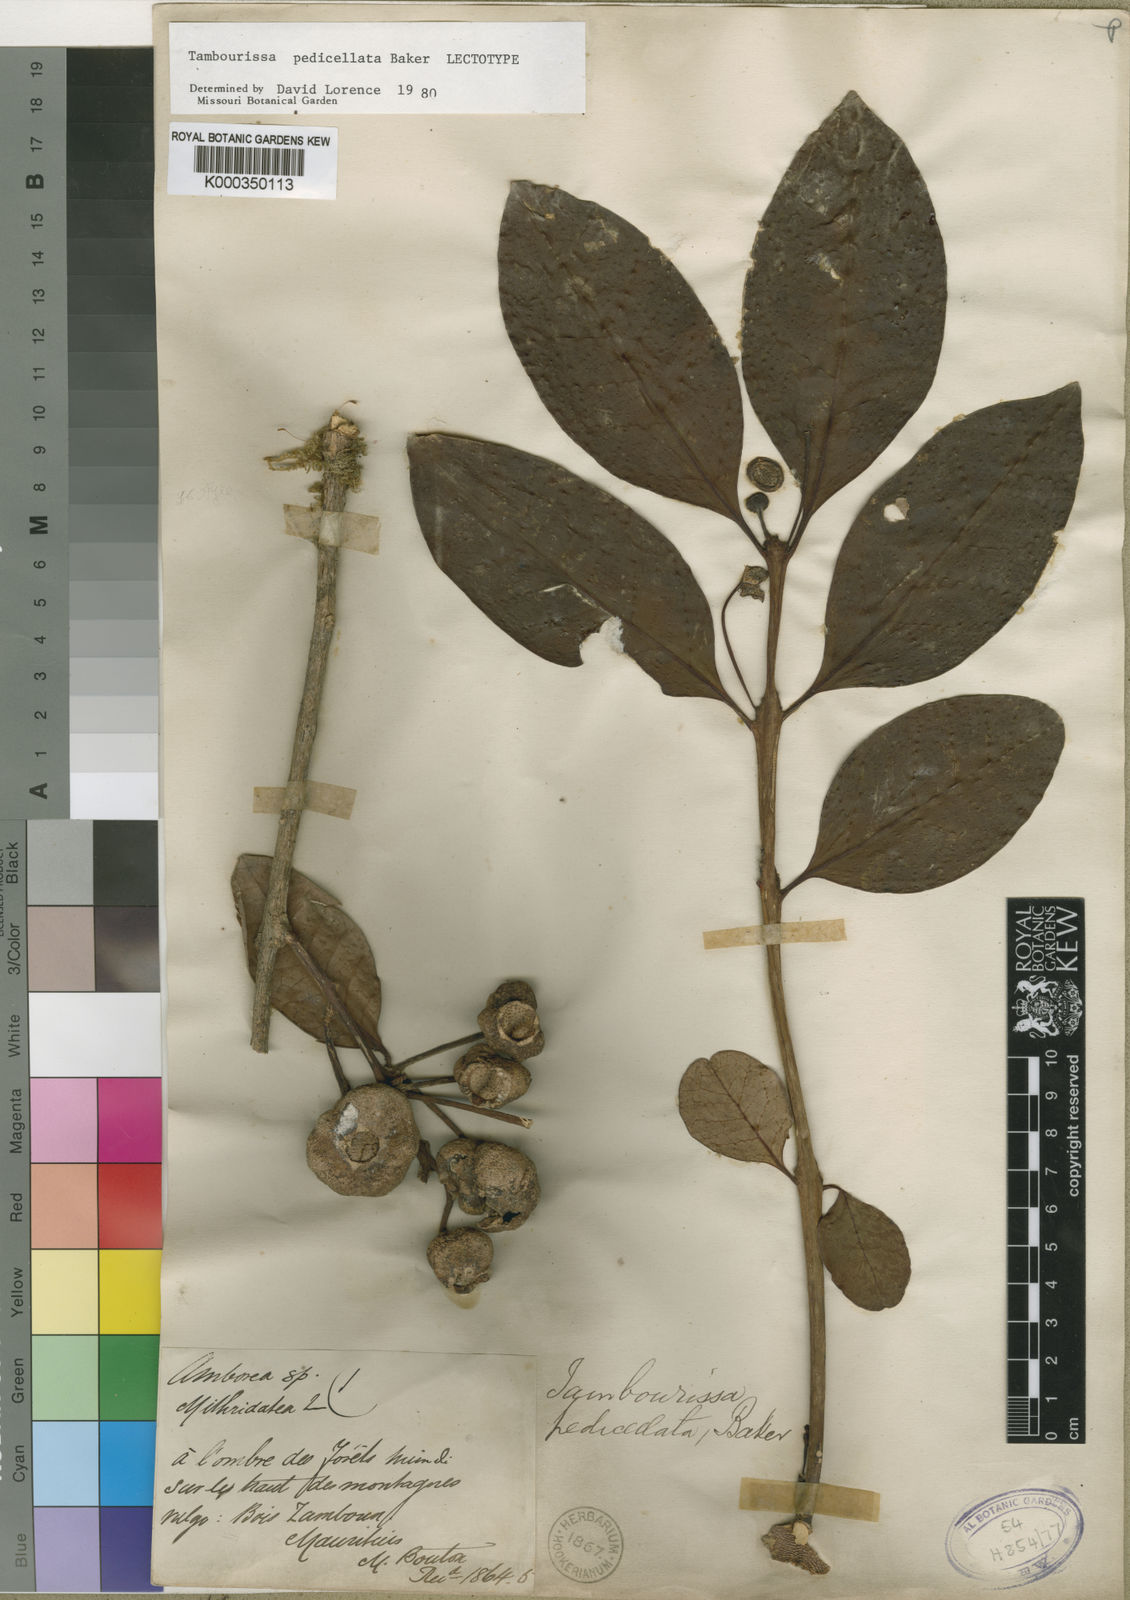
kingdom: Plantae
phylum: Tracheophyta
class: Magnoliopsida
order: Laurales
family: Monimiaceae
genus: Tambourissa
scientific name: Tambourissa pedicellata
